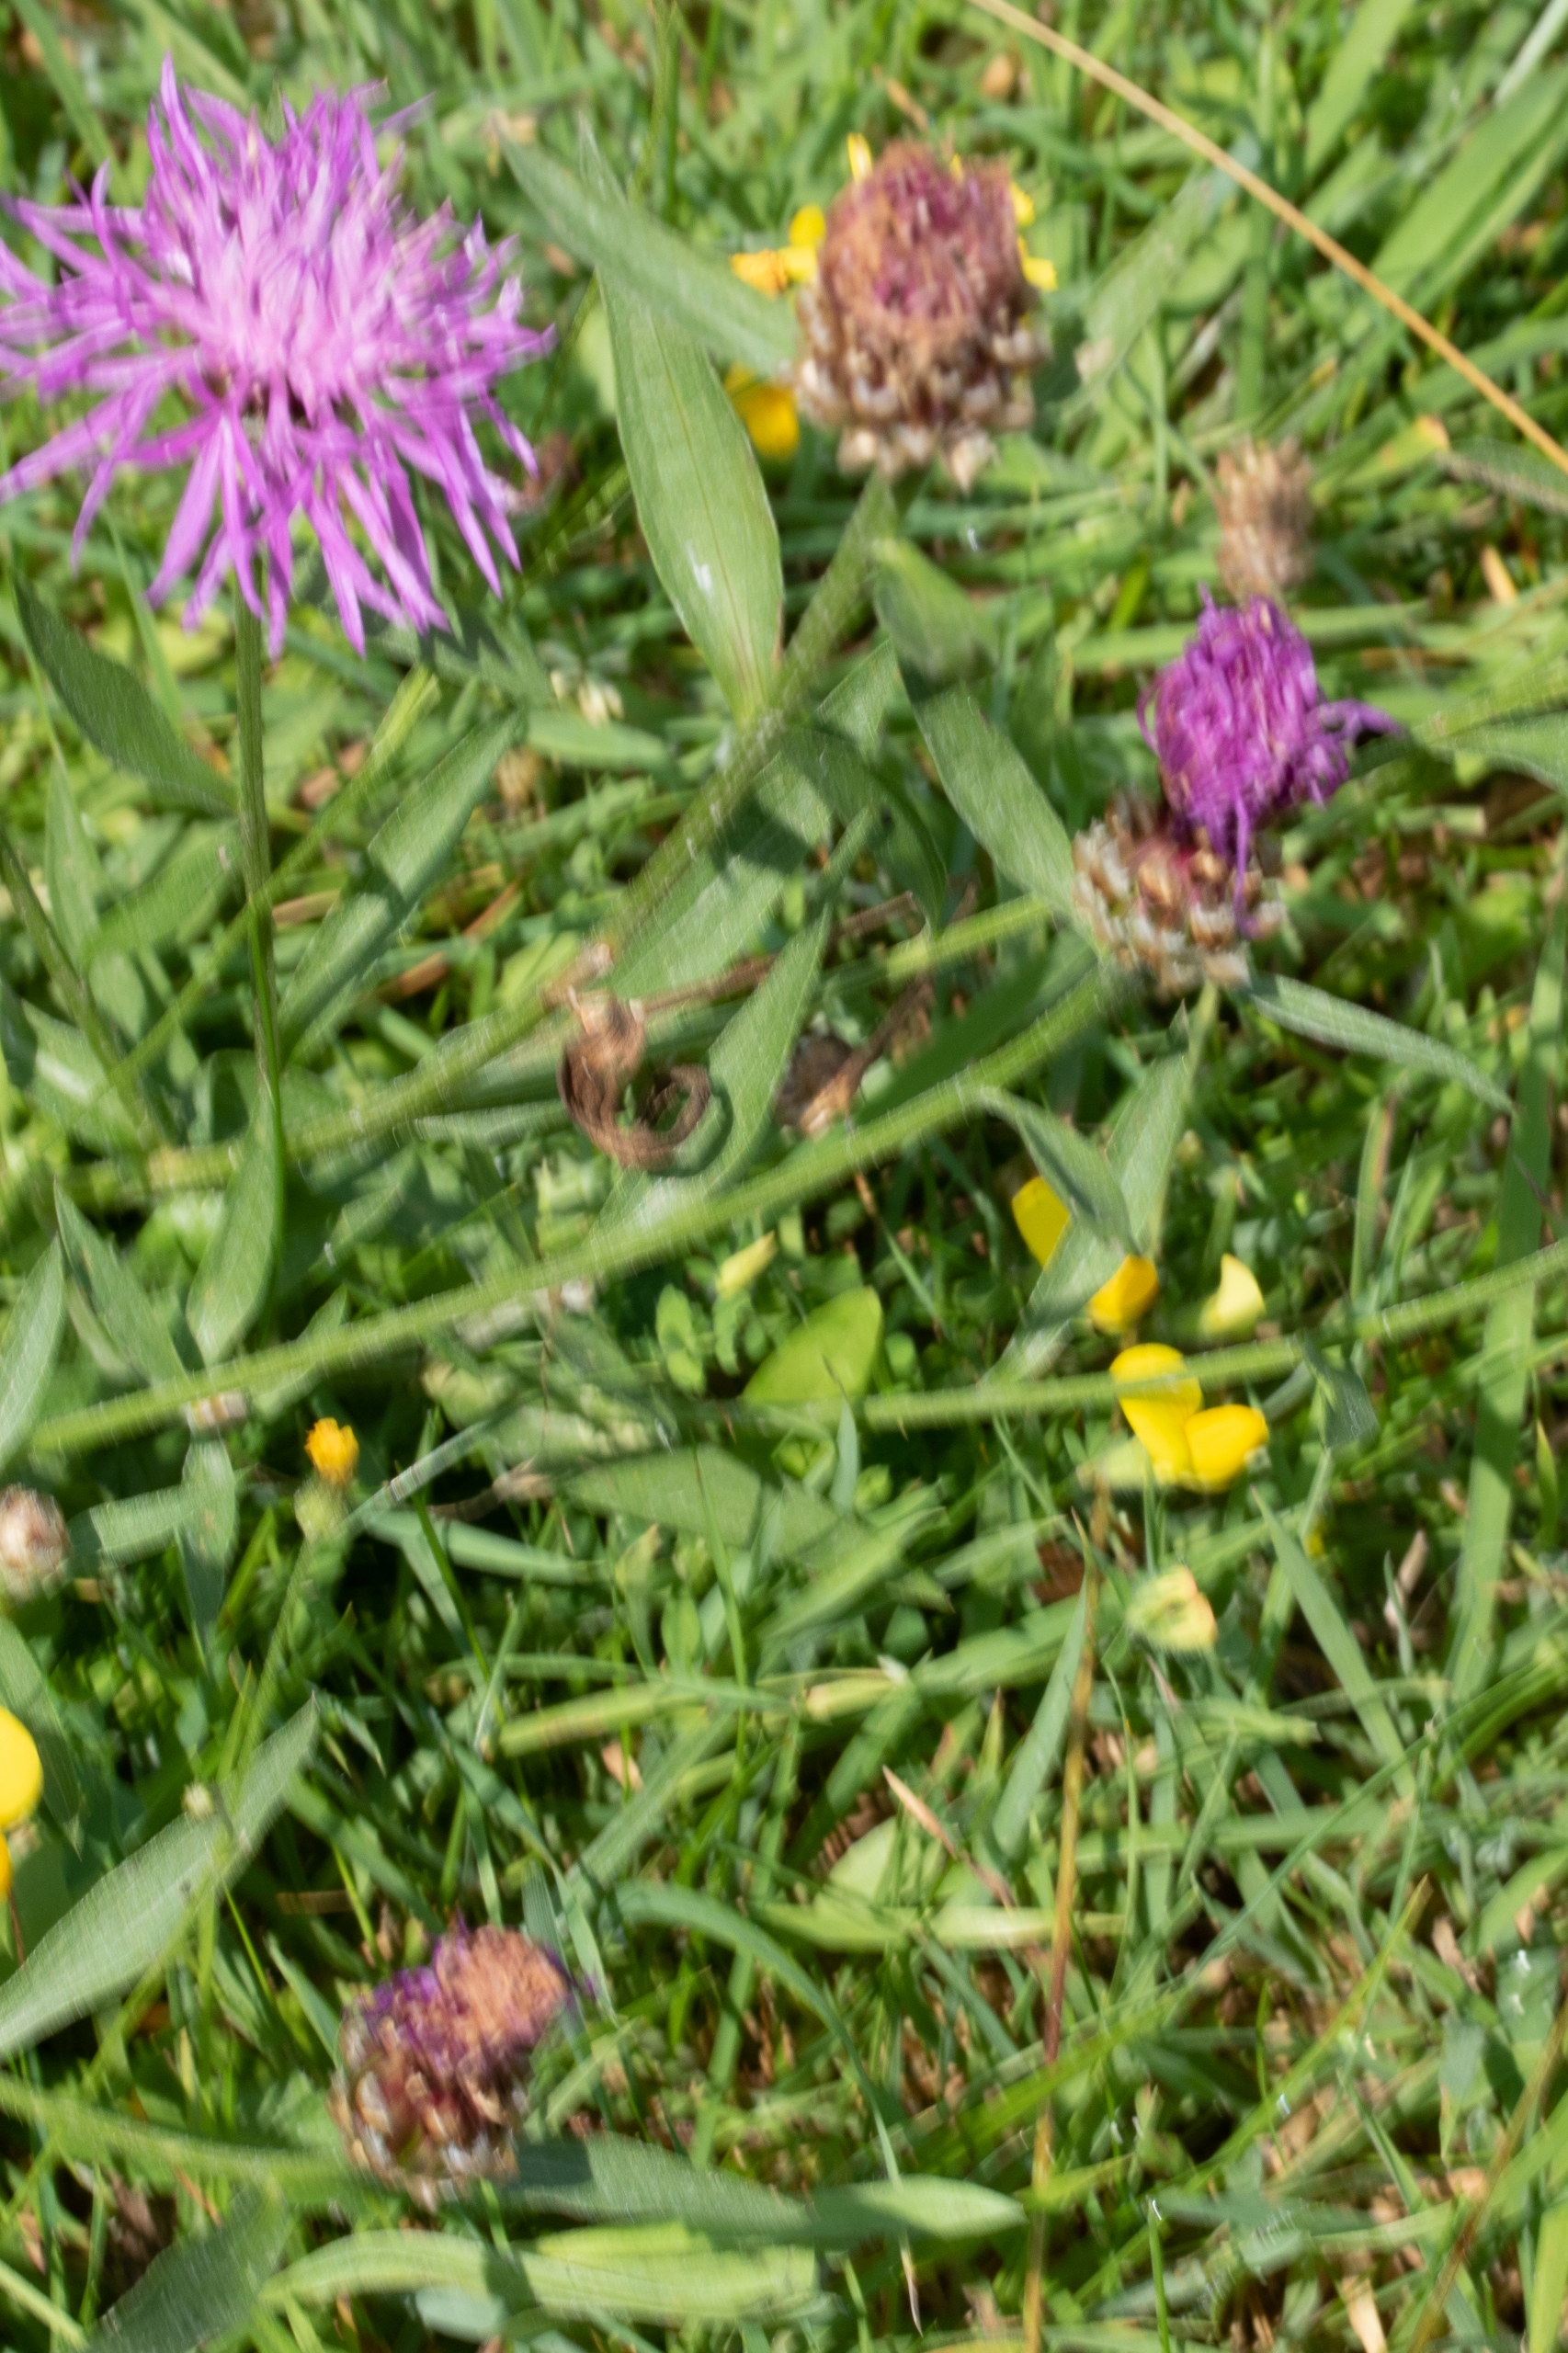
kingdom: Plantae
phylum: Tracheophyta
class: Magnoliopsida
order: Asterales
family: Asteraceae
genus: Centaurea
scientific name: Centaurea jacea
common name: Almindelig knopurt
